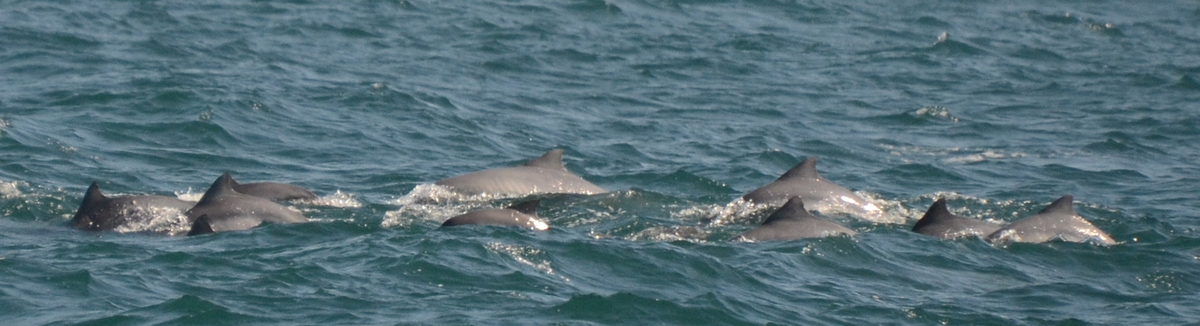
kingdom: Animalia
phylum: Chordata
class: Mammalia
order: Cetacea
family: Delphinidae
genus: Sotalia
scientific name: Sotalia guianensis
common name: Guiana dolphin
